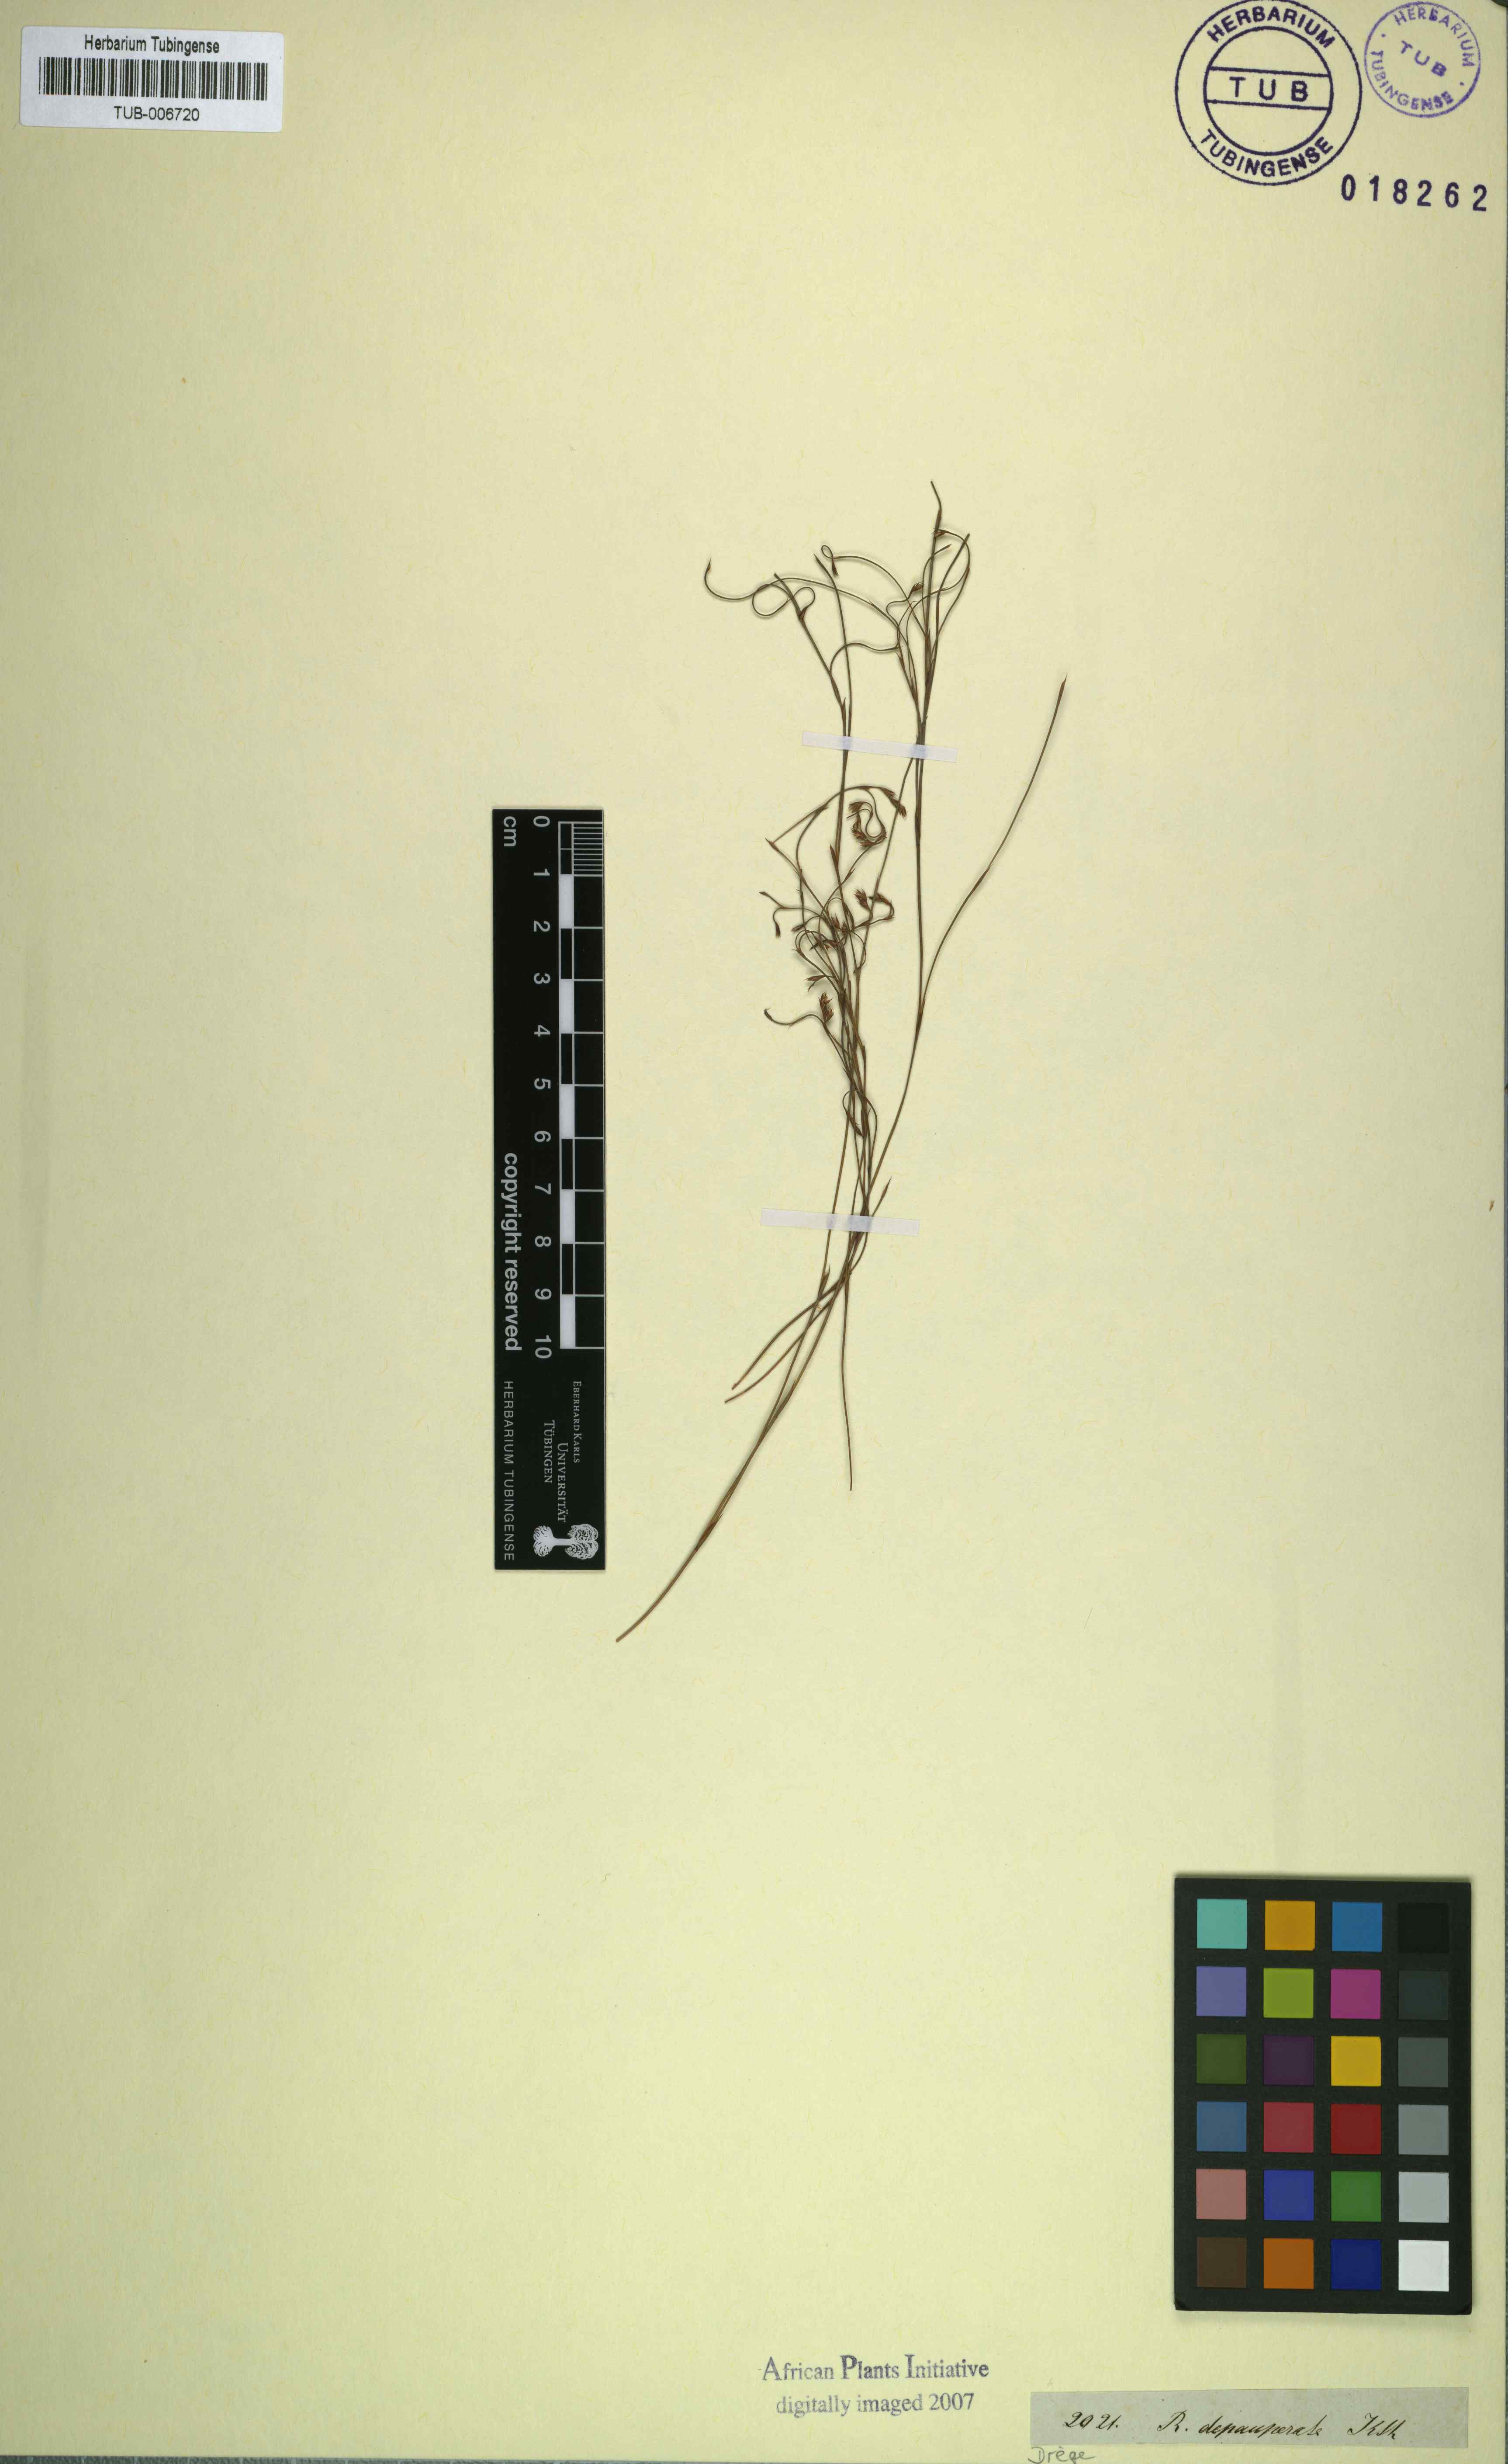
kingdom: Plantae
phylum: Tracheophyta
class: Liliopsida
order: Poales
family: Restionaceae
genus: Platycaulos
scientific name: Platycaulos depauperatus
